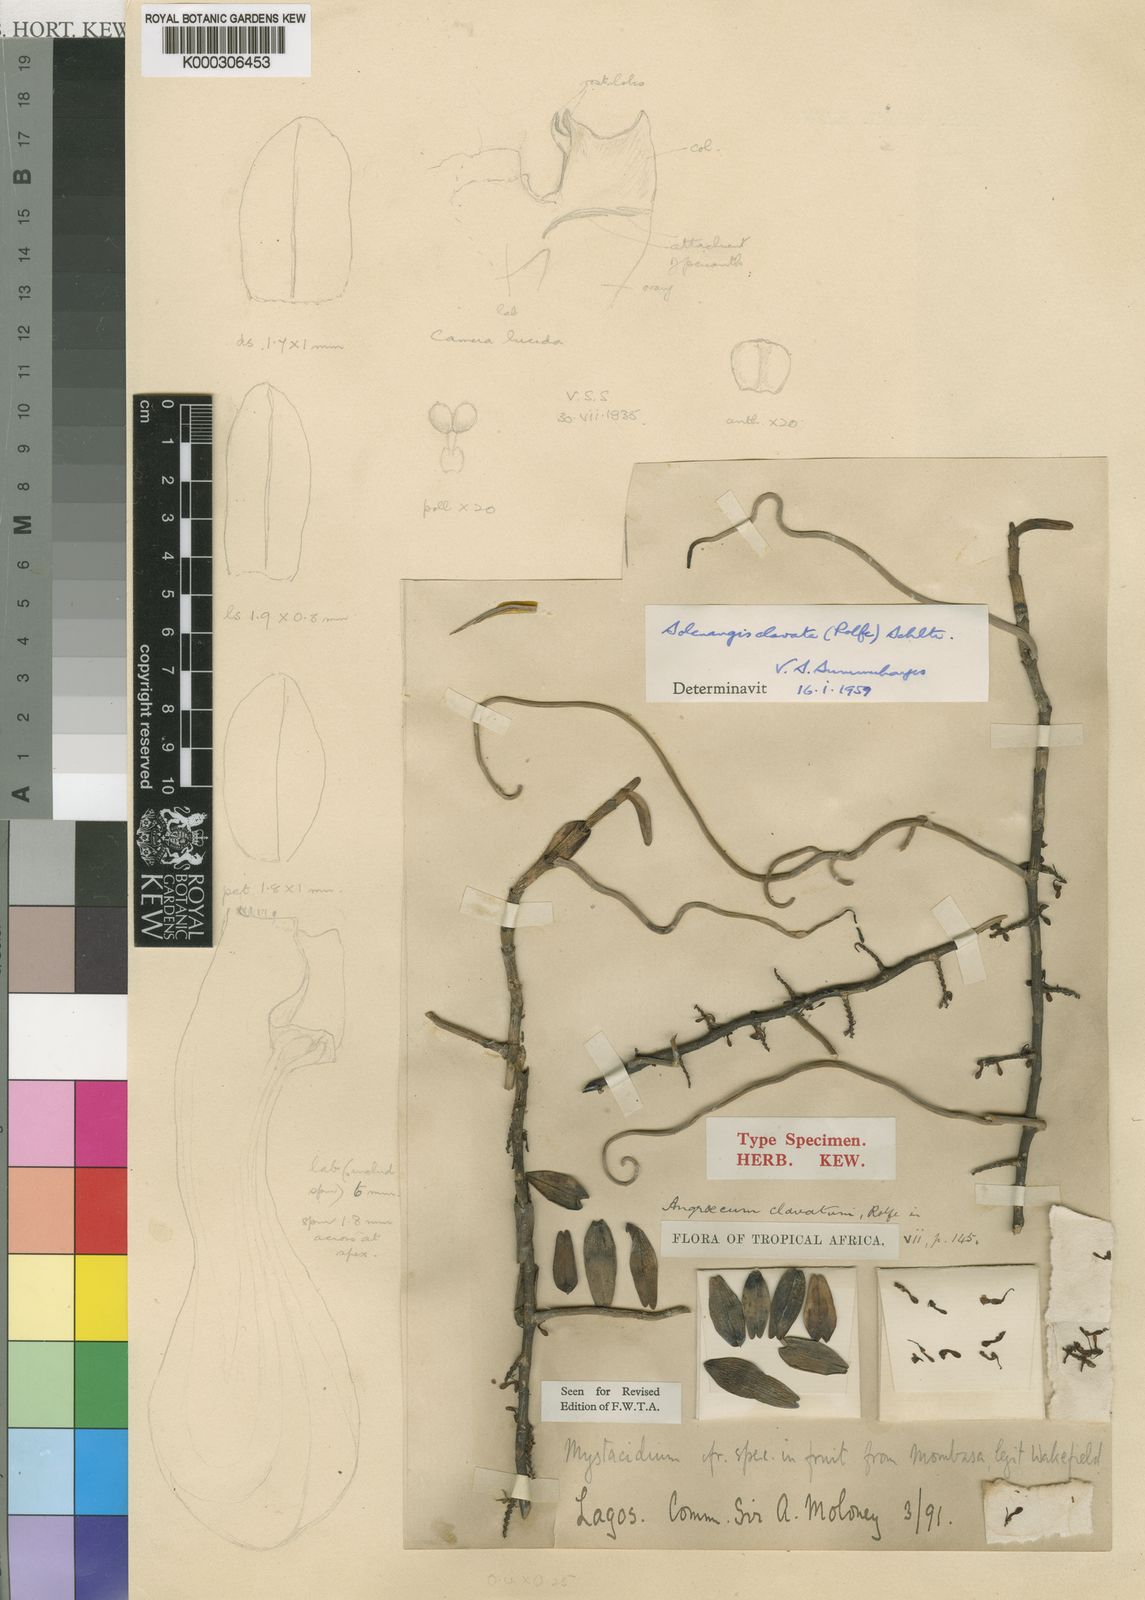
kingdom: Plantae
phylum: Tracheophyta
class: Liliopsida
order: Asparagales
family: Orchidaceae
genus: Solenangis
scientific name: Solenangis clavata
